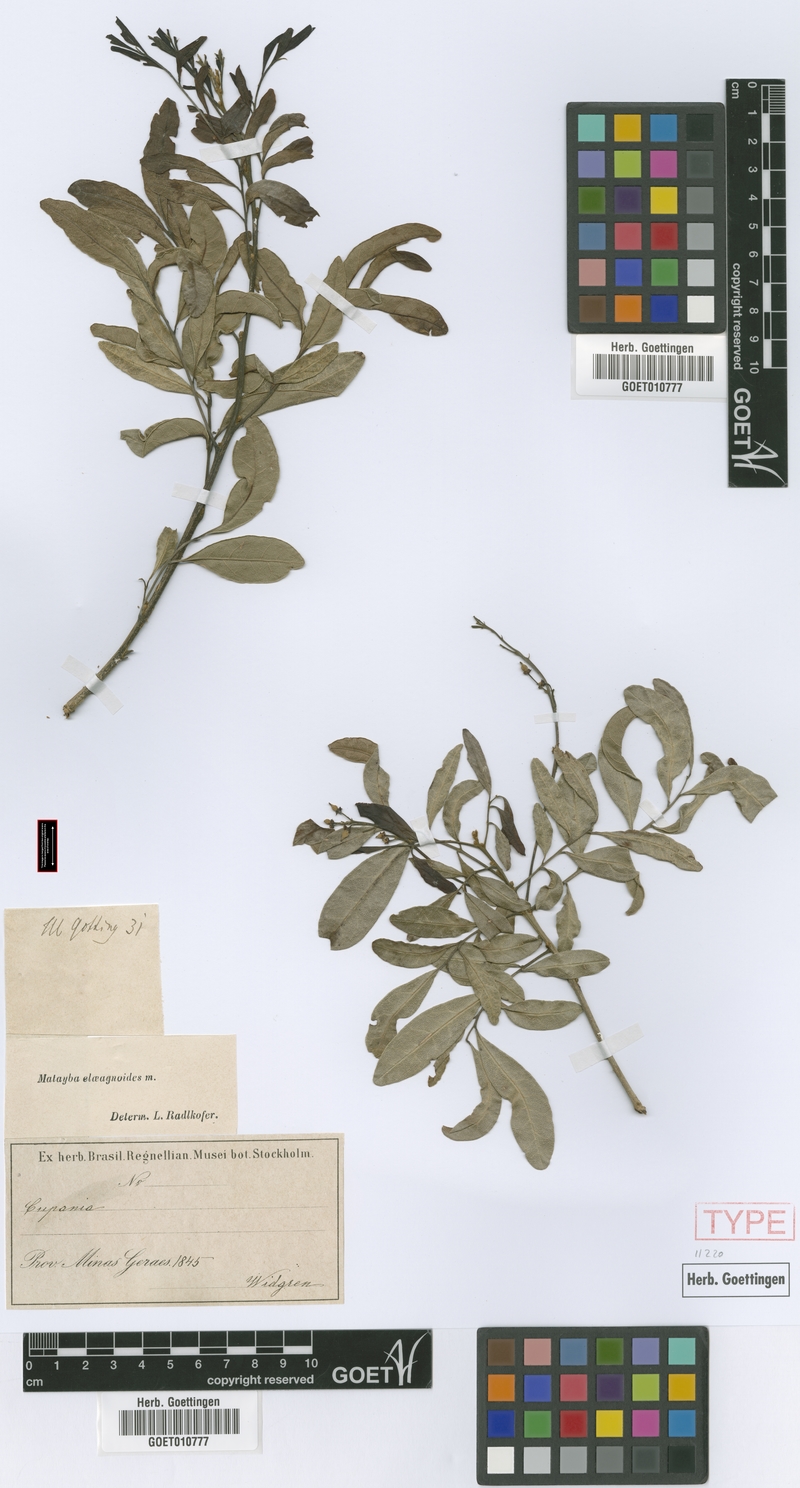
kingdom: Plantae
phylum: Tracheophyta
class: Magnoliopsida
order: Sapindales
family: Sapindaceae
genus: Matayba
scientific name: Matayba elaeagnoides
